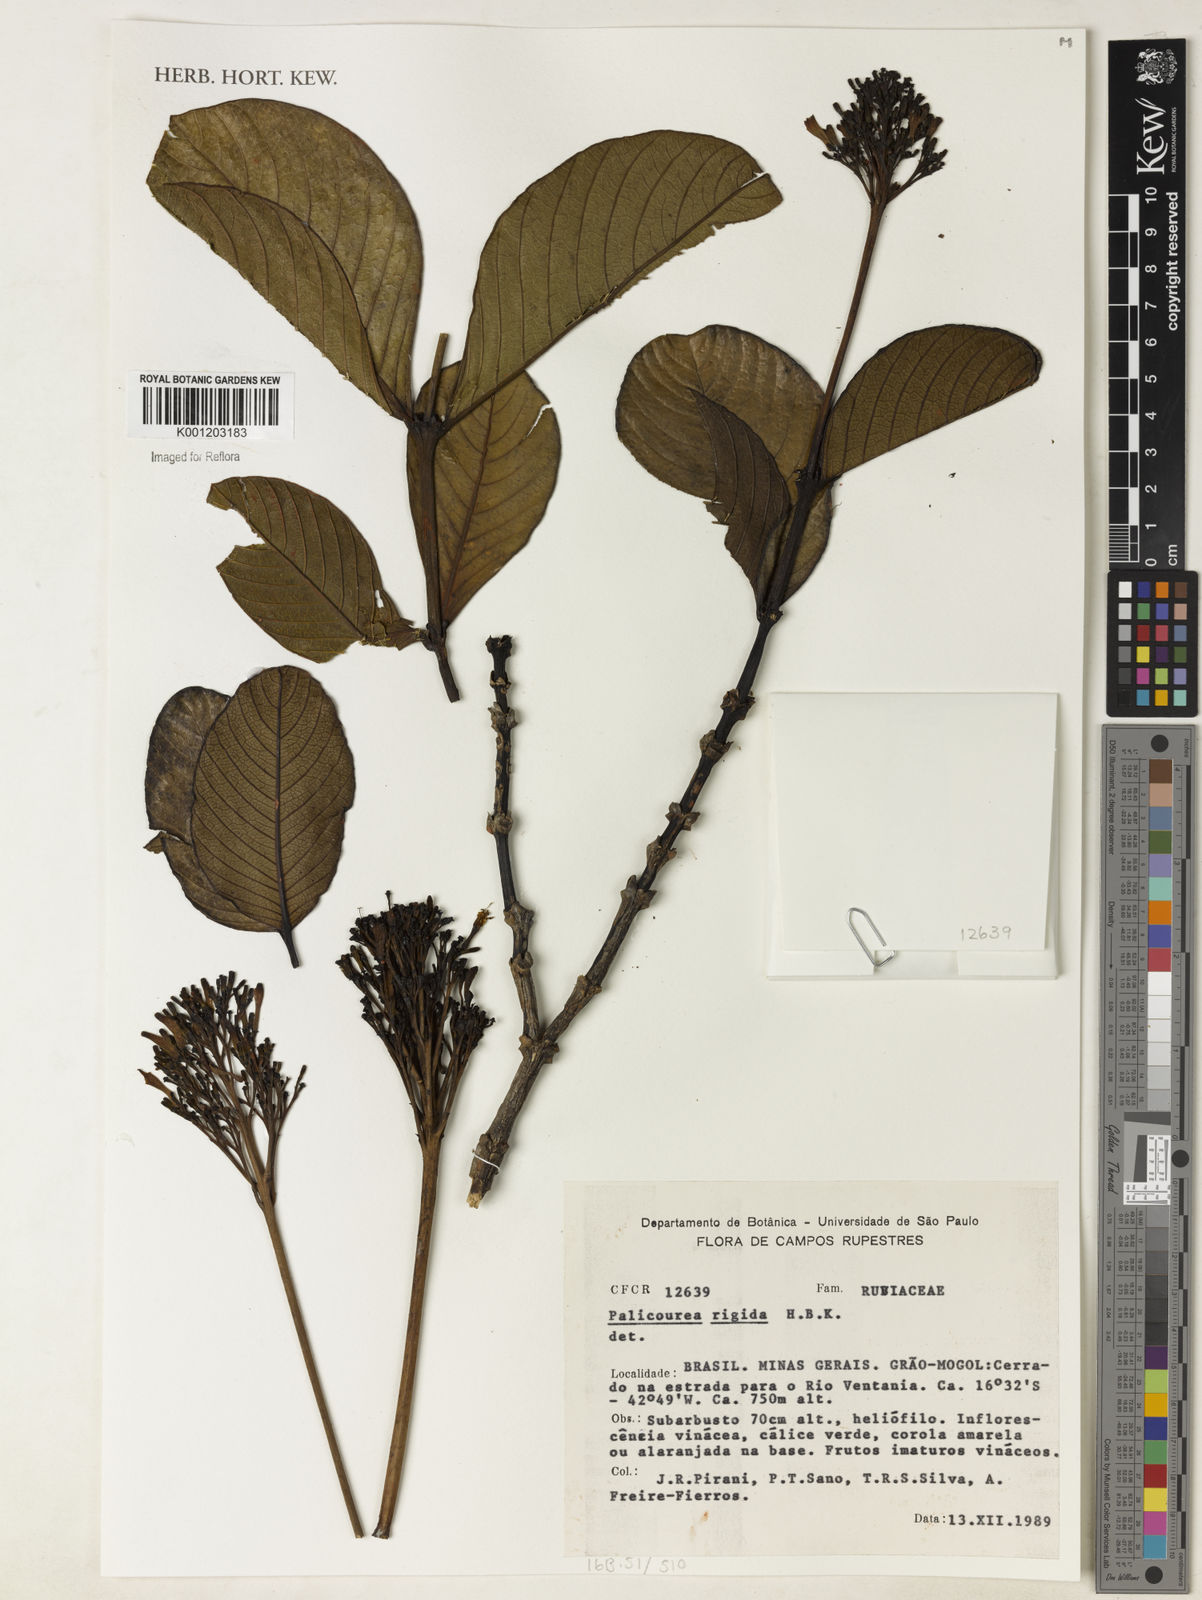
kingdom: Plantae
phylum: Tracheophyta
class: Magnoliopsida
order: Gentianales
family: Rubiaceae
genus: Palicourea
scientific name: Palicourea rigida
